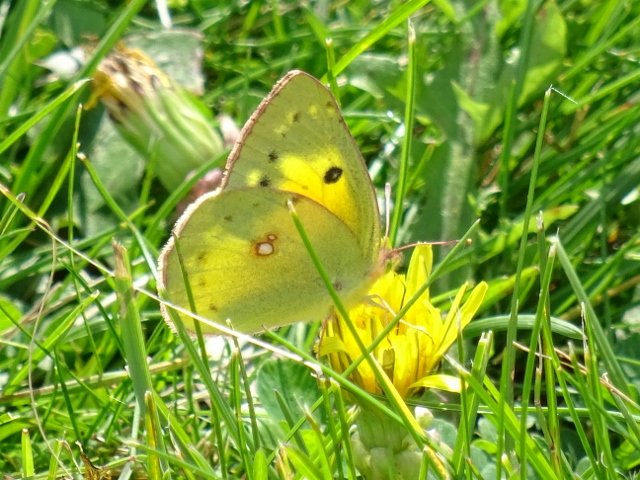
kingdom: Animalia
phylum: Arthropoda
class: Insecta
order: Lepidoptera
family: Pieridae
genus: Colias
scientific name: Colias philodice
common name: Clouded Sulphur
